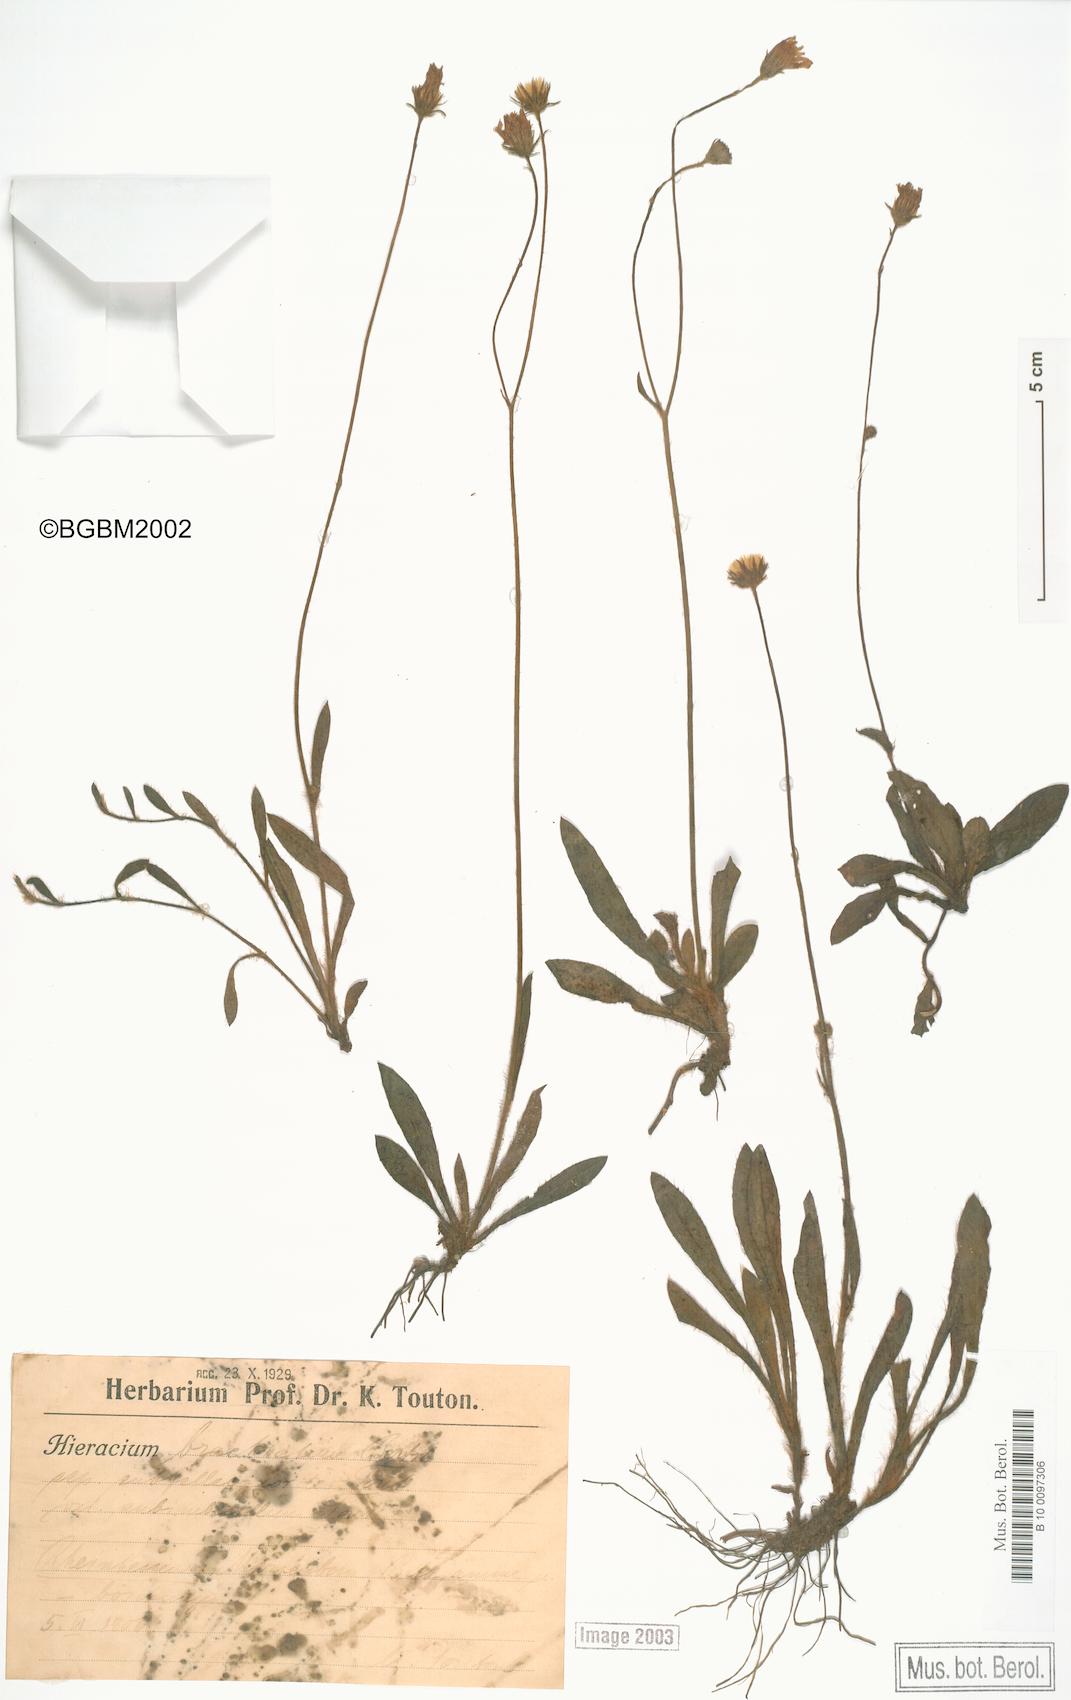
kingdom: Plantae
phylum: Tracheophyta
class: Magnoliopsida
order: Asterales
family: Asteraceae
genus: Pilosella
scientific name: Pilosella acutifolia
